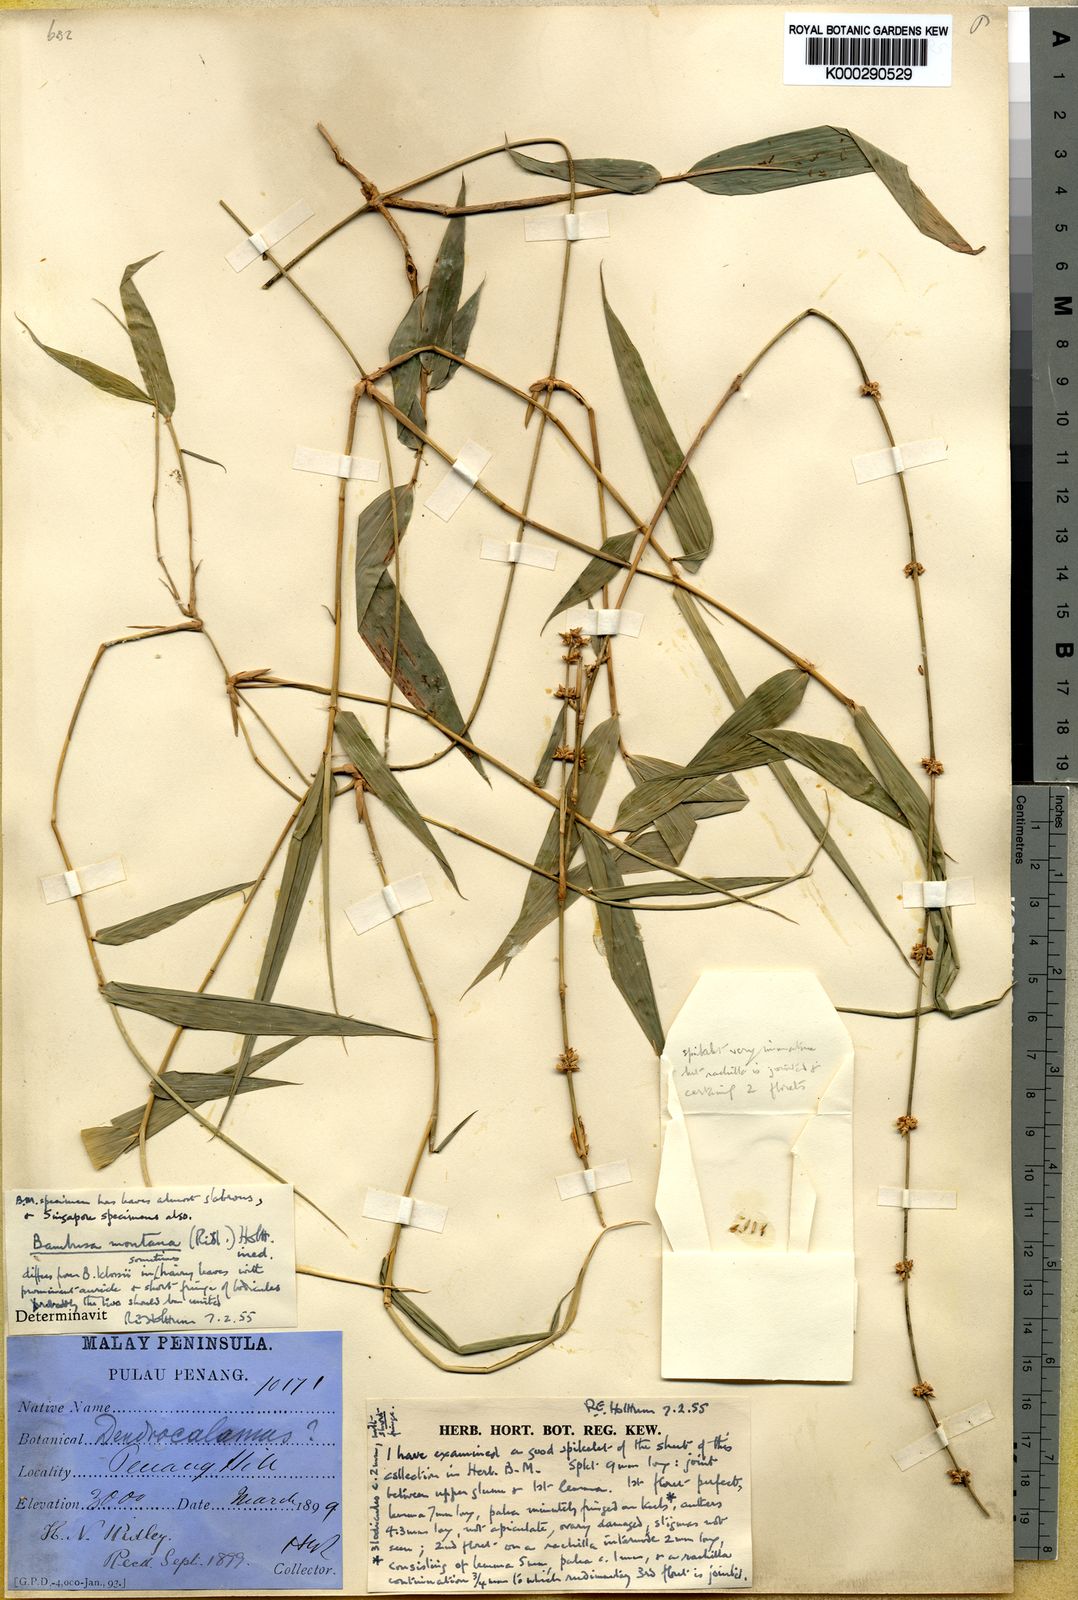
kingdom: Plantae
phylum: Tracheophyta
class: Liliopsida
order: Poales
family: Poaceae
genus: Dendrocalamus
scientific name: Dendrocalamus hirtellus
